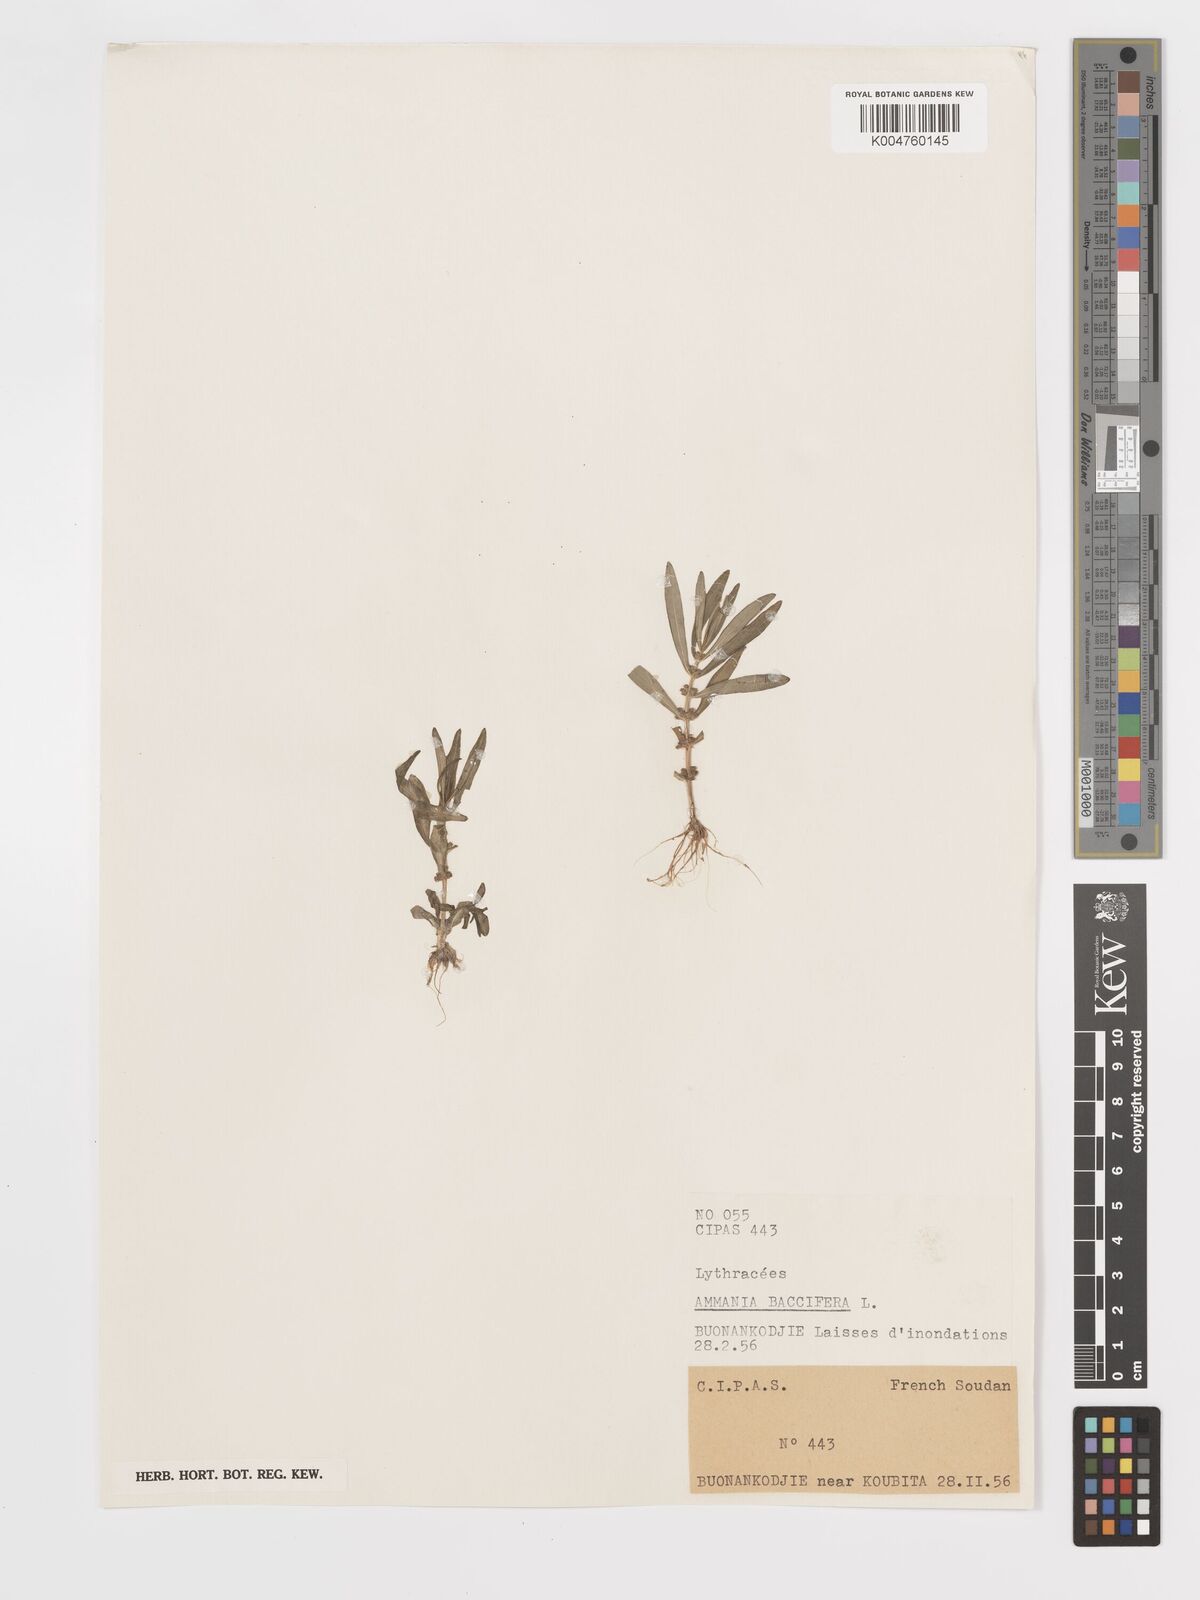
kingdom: Plantae
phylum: Tracheophyta
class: Magnoliopsida
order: Myrtales
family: Lythraceae
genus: Ammannia
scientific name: Ammannia
